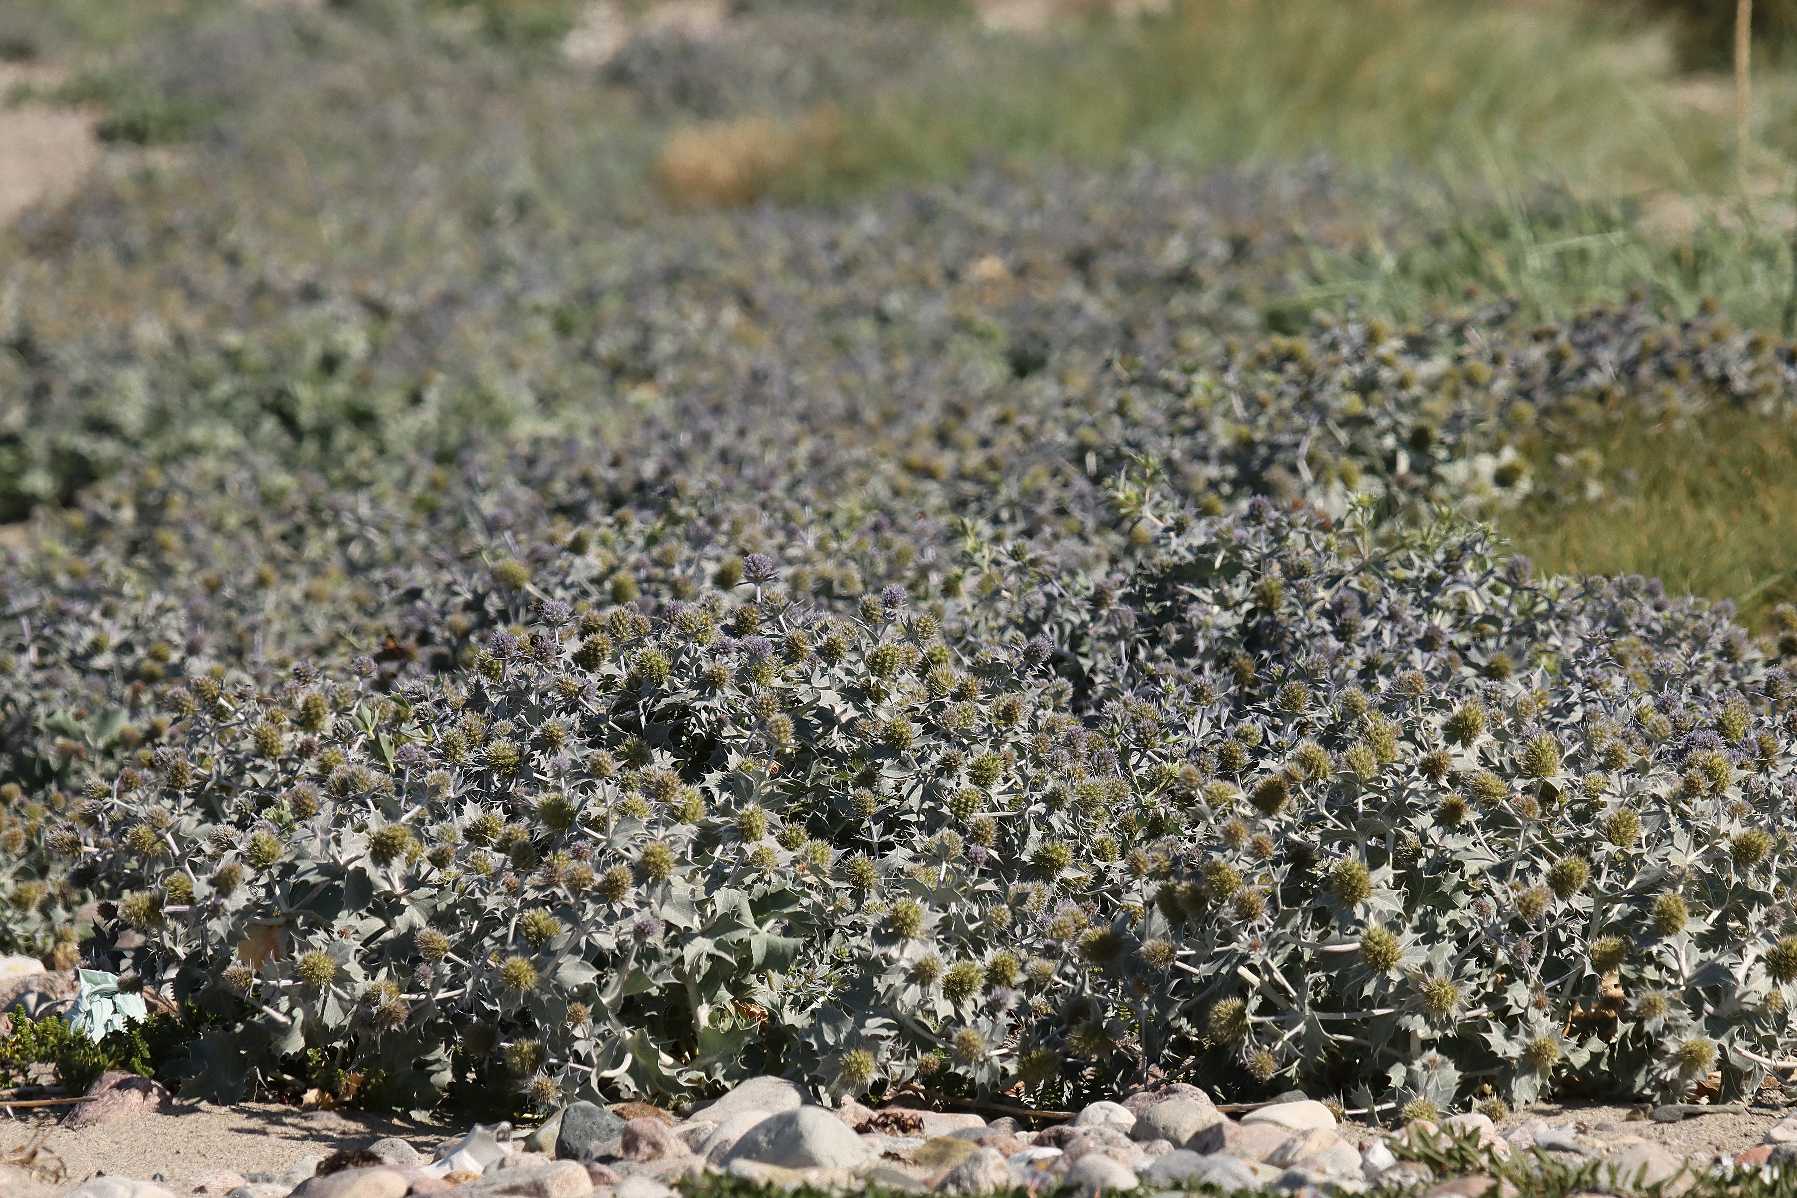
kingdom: Plantae
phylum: Tracheophyta
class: Magnoliopsida
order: Apiales
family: Apiaceae
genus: Eryngium
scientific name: Eryngium maritimum
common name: Strand-mandstro
